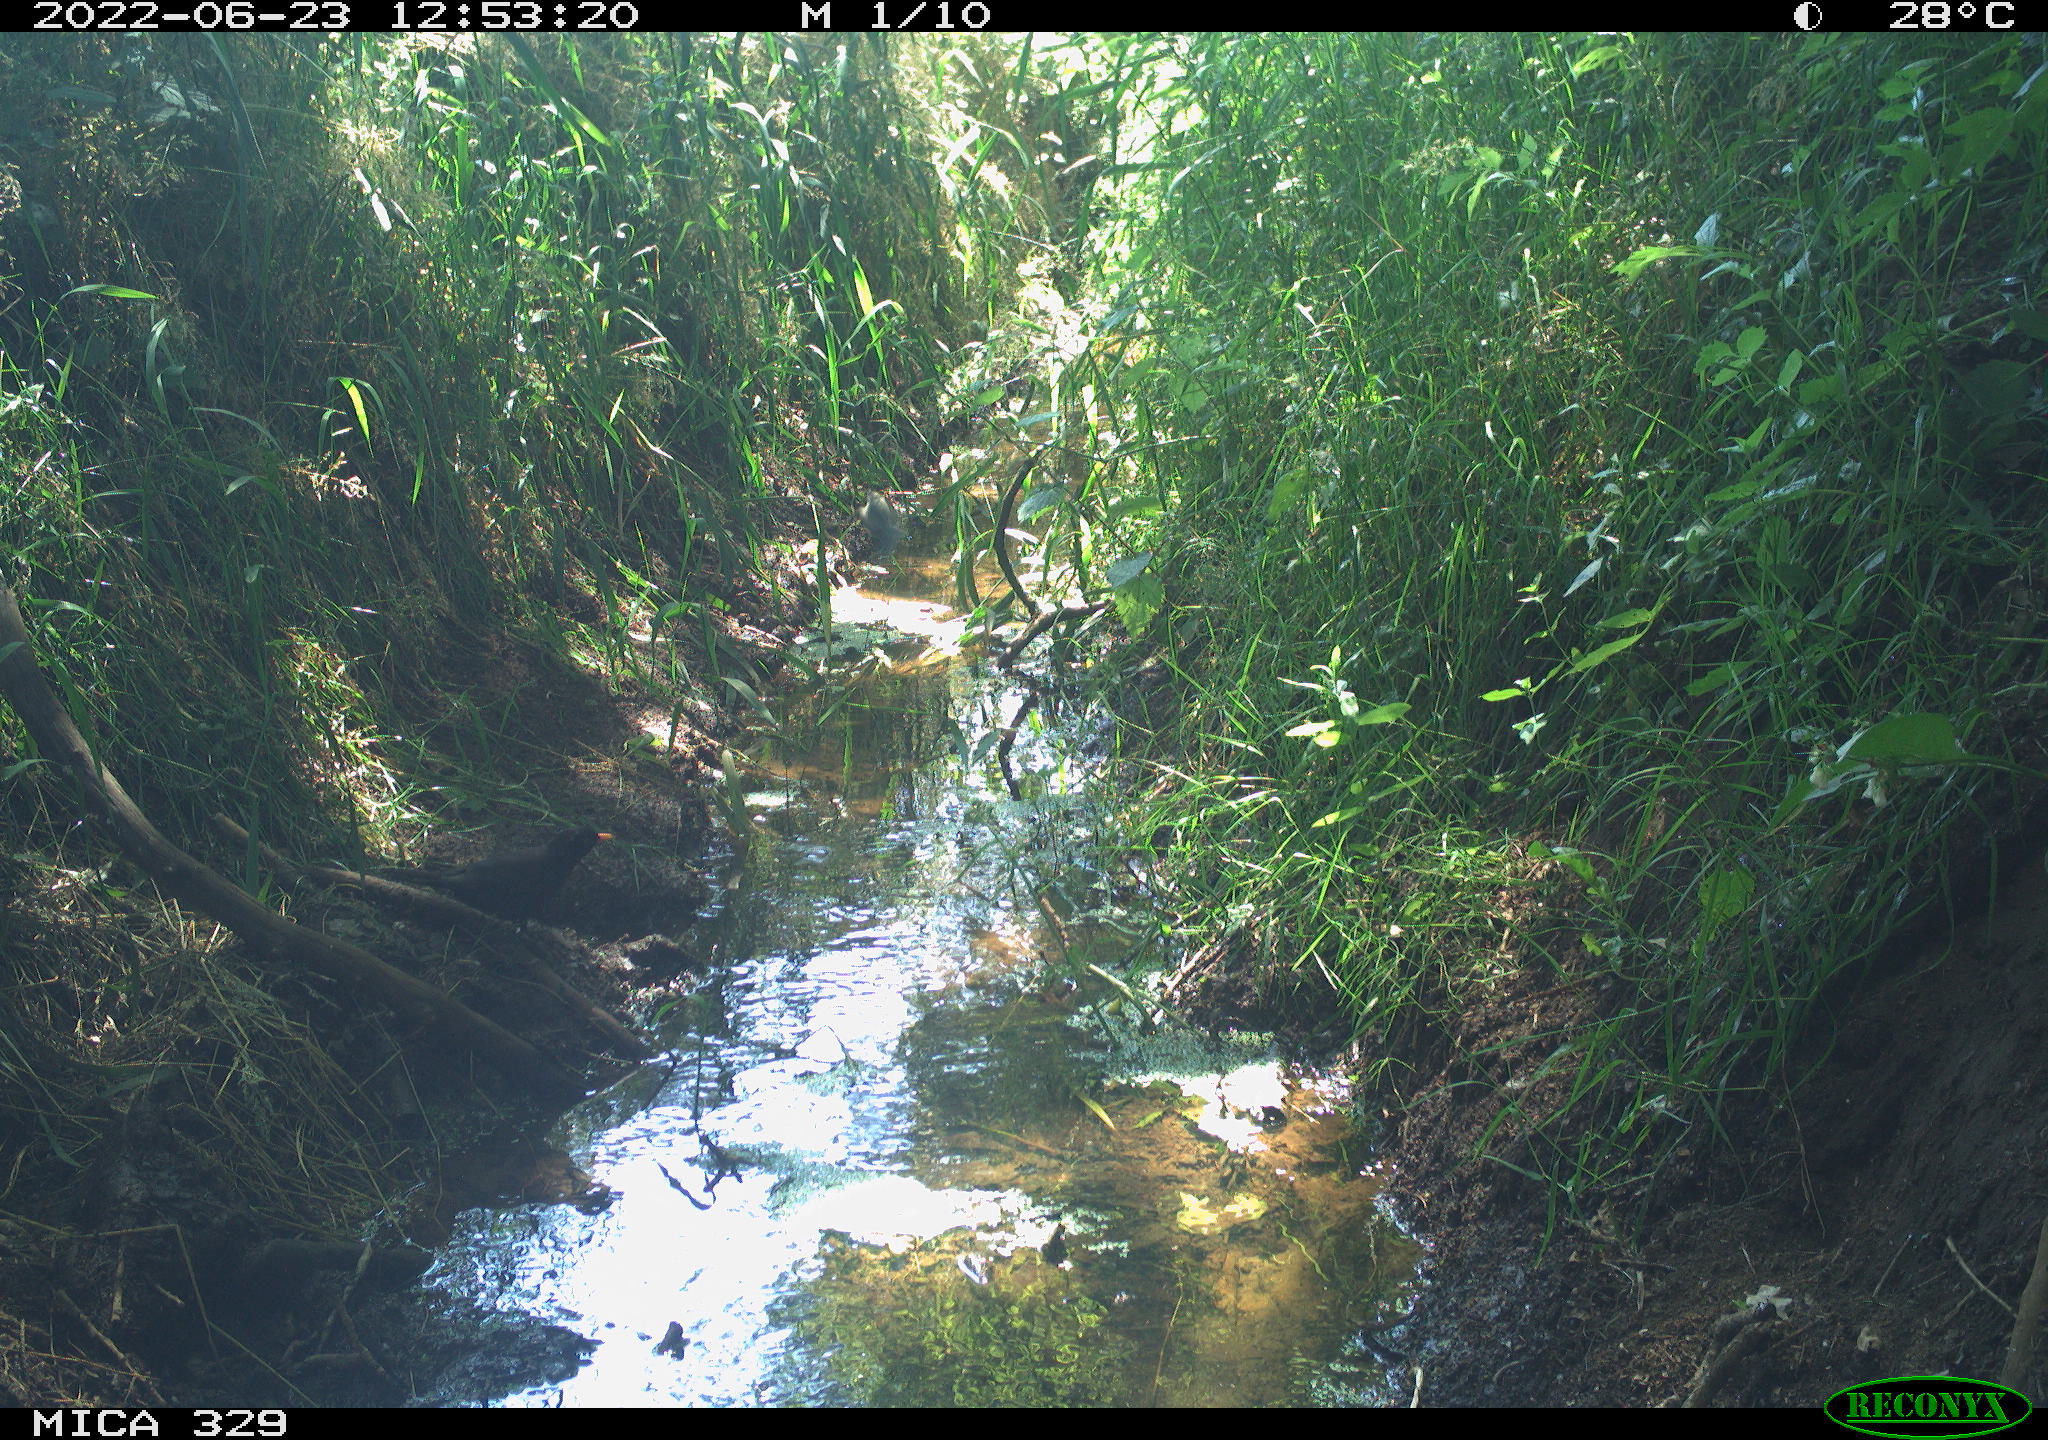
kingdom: Animalia
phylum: Chordata
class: Aves
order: Passeriformes
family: Turdidae
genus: Turdus
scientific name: Turdus merula
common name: Common blackbird
